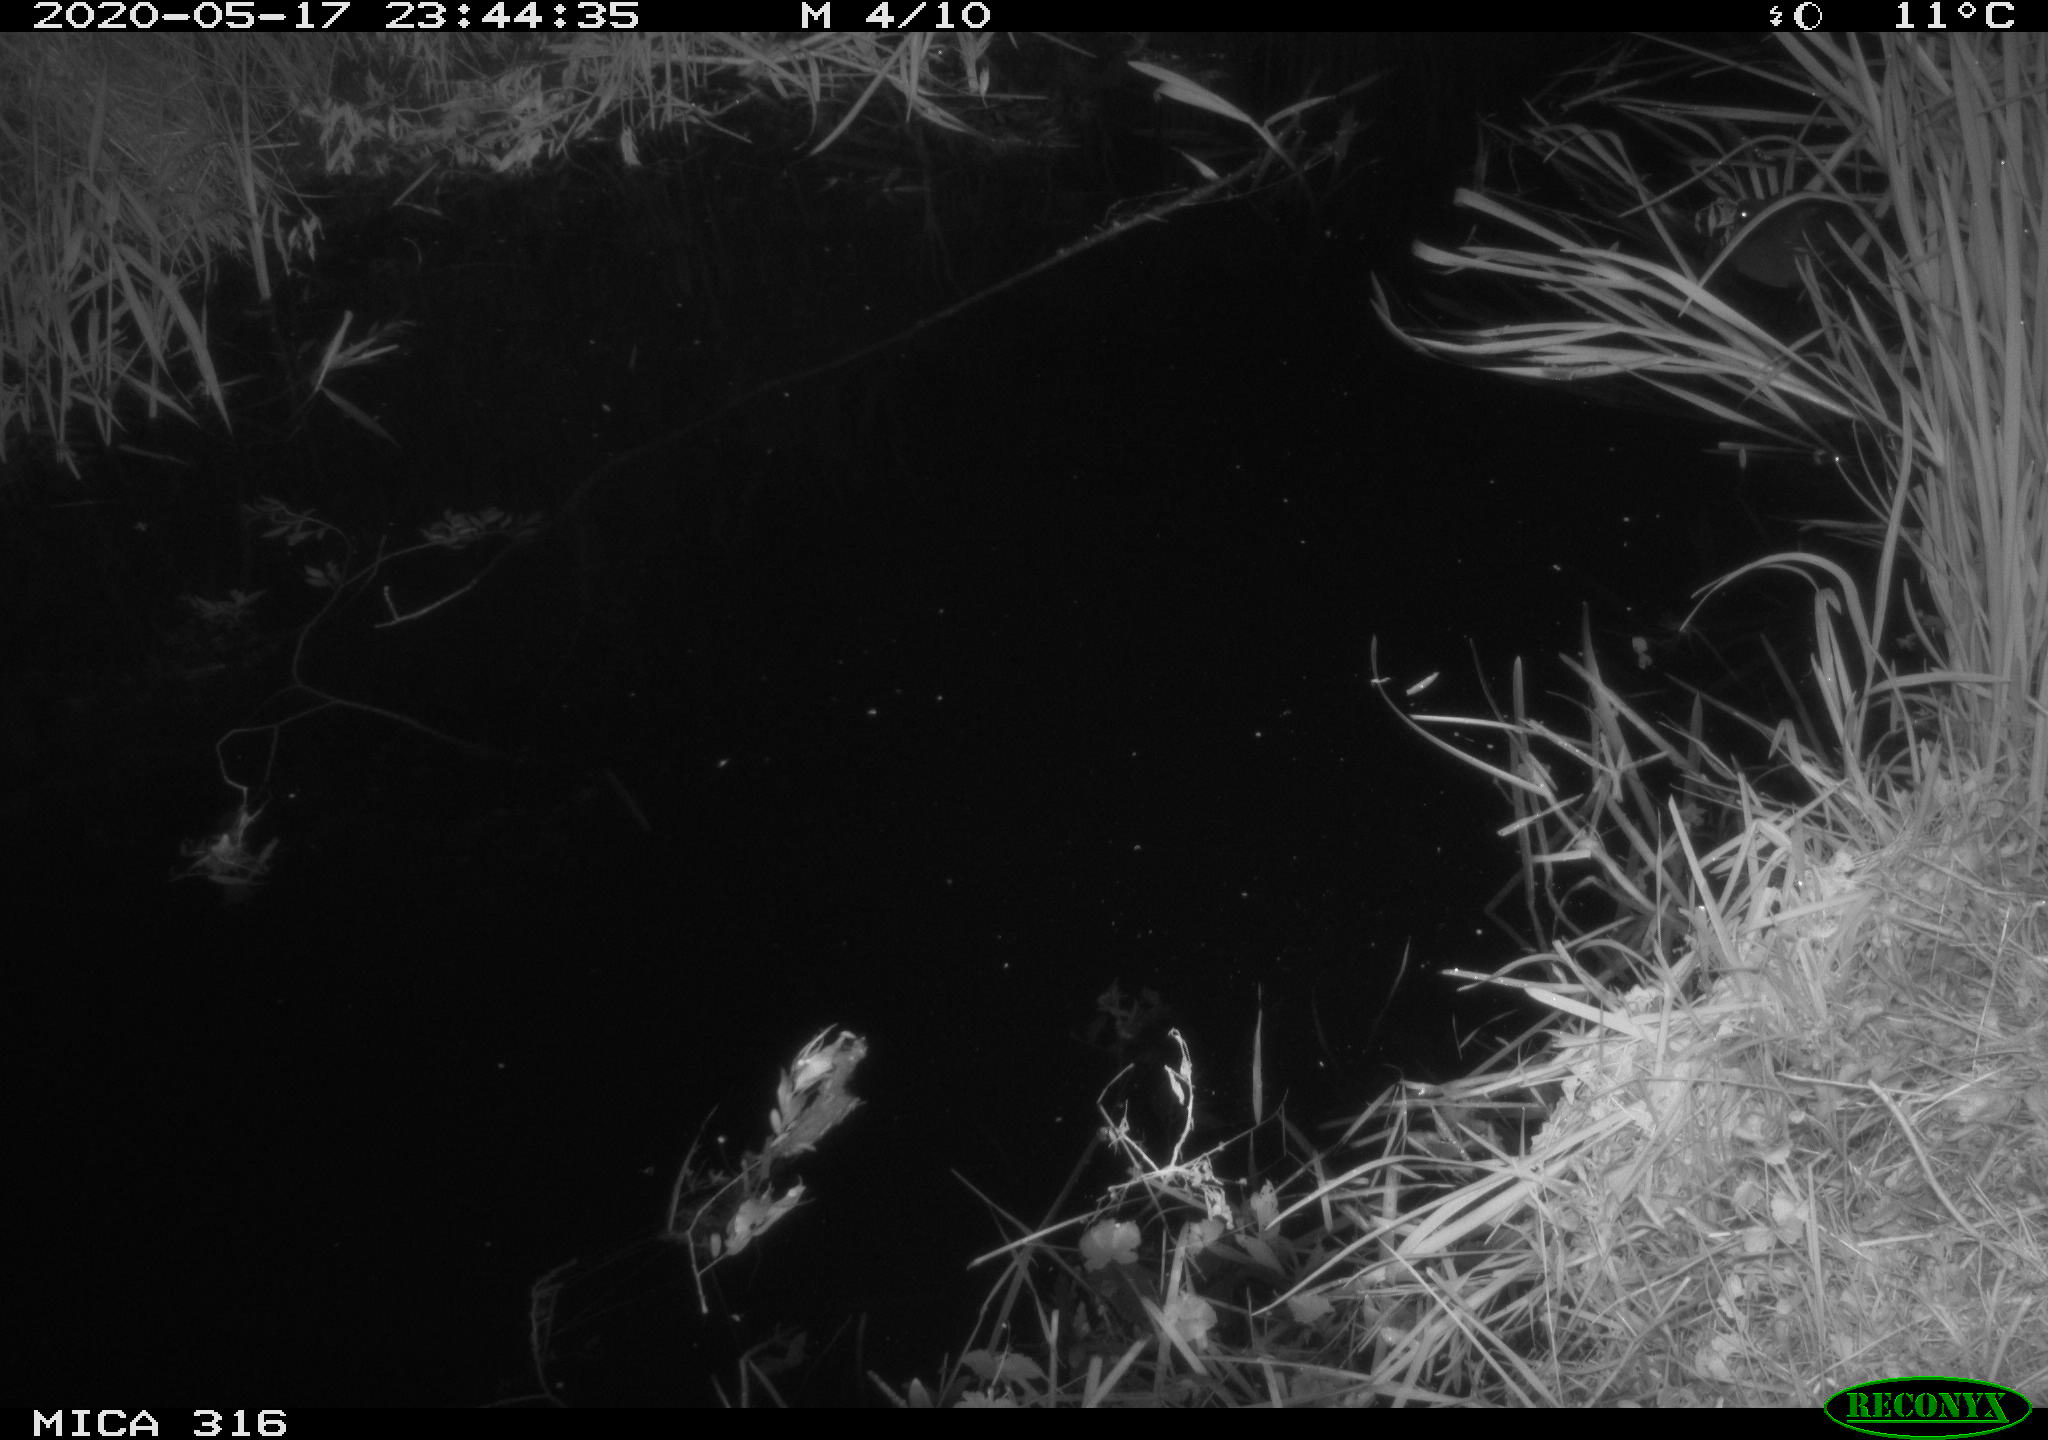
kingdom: Animalia
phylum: Chordata
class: Aves
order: Anseriformes
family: Anatidae
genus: Anas
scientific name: Anas platyrhynchos
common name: Mallard
